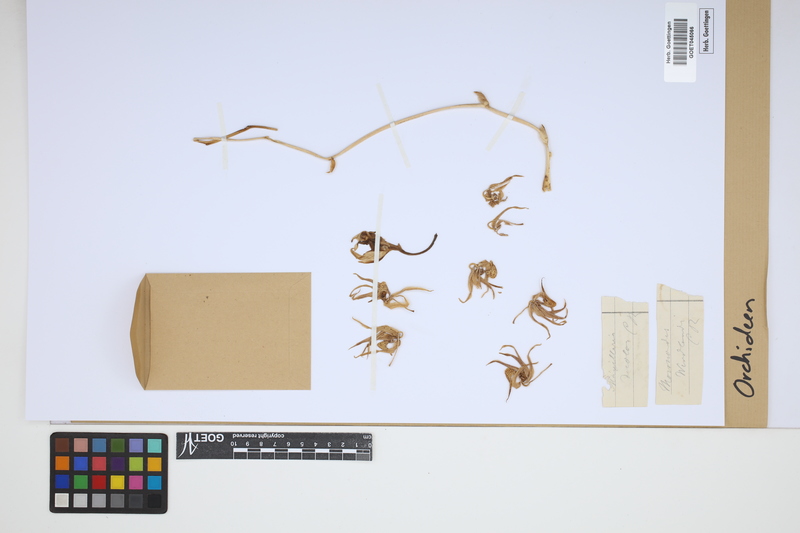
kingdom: Plantae
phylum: Tracheophyta
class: Liliopsida
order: Asparagales
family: Orchidaceae
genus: Mormodes
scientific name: Mormodes colossus
